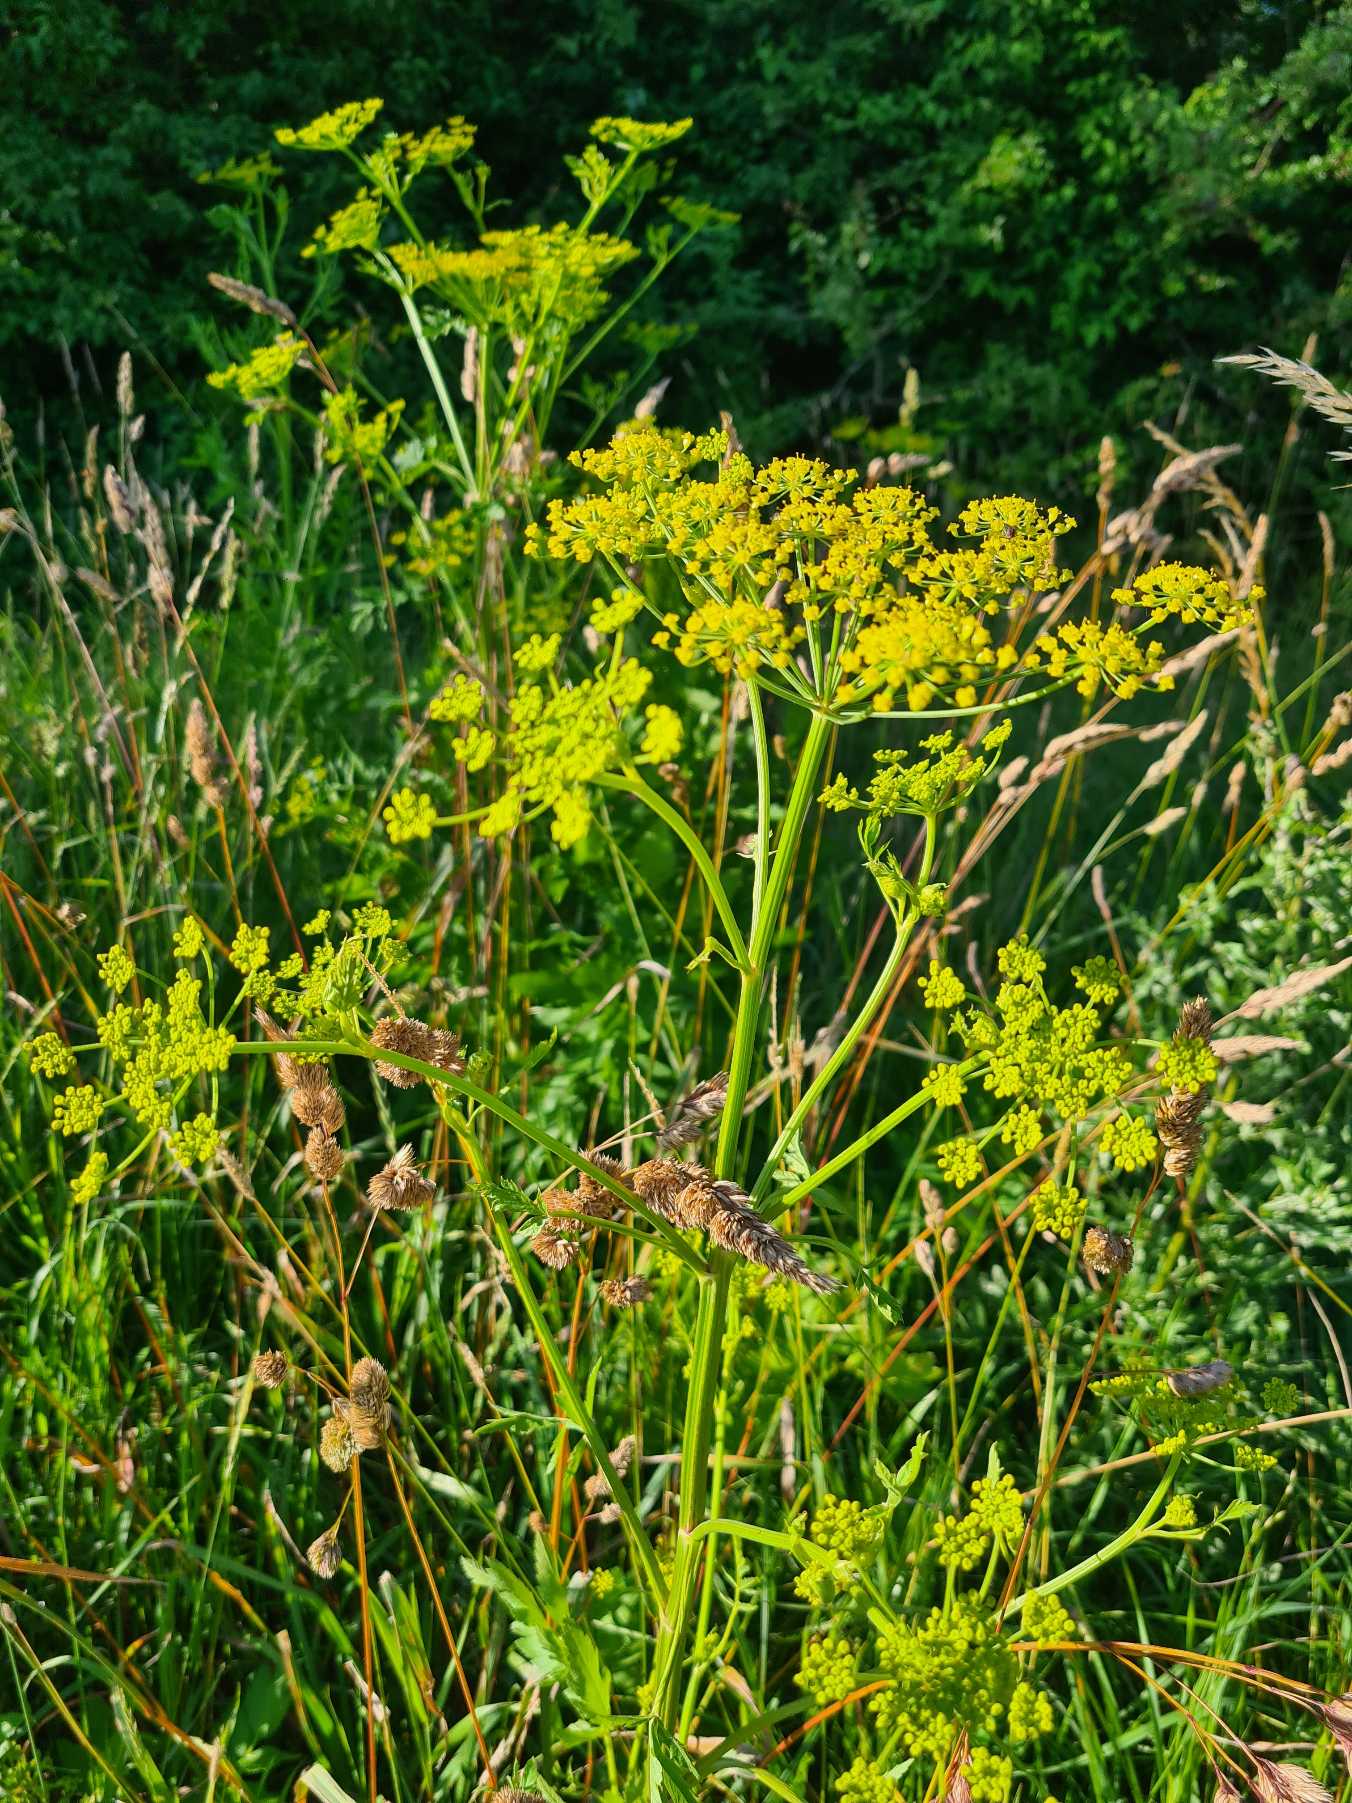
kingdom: Plantae
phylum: Tracheophyta
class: Magnoliopsida
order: Apiales
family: Apiaceae
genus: Pastinaca
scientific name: Pastinaca sativa
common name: Pastinak
